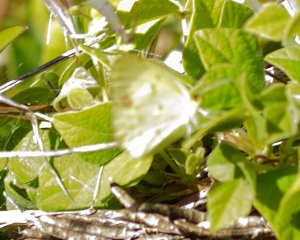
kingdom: Animalia
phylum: Arthropoda
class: Insecta
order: Lepidoptera
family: Pieridae
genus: Pyrisitia
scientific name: Pyrisitia lisa
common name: Little Yellow
